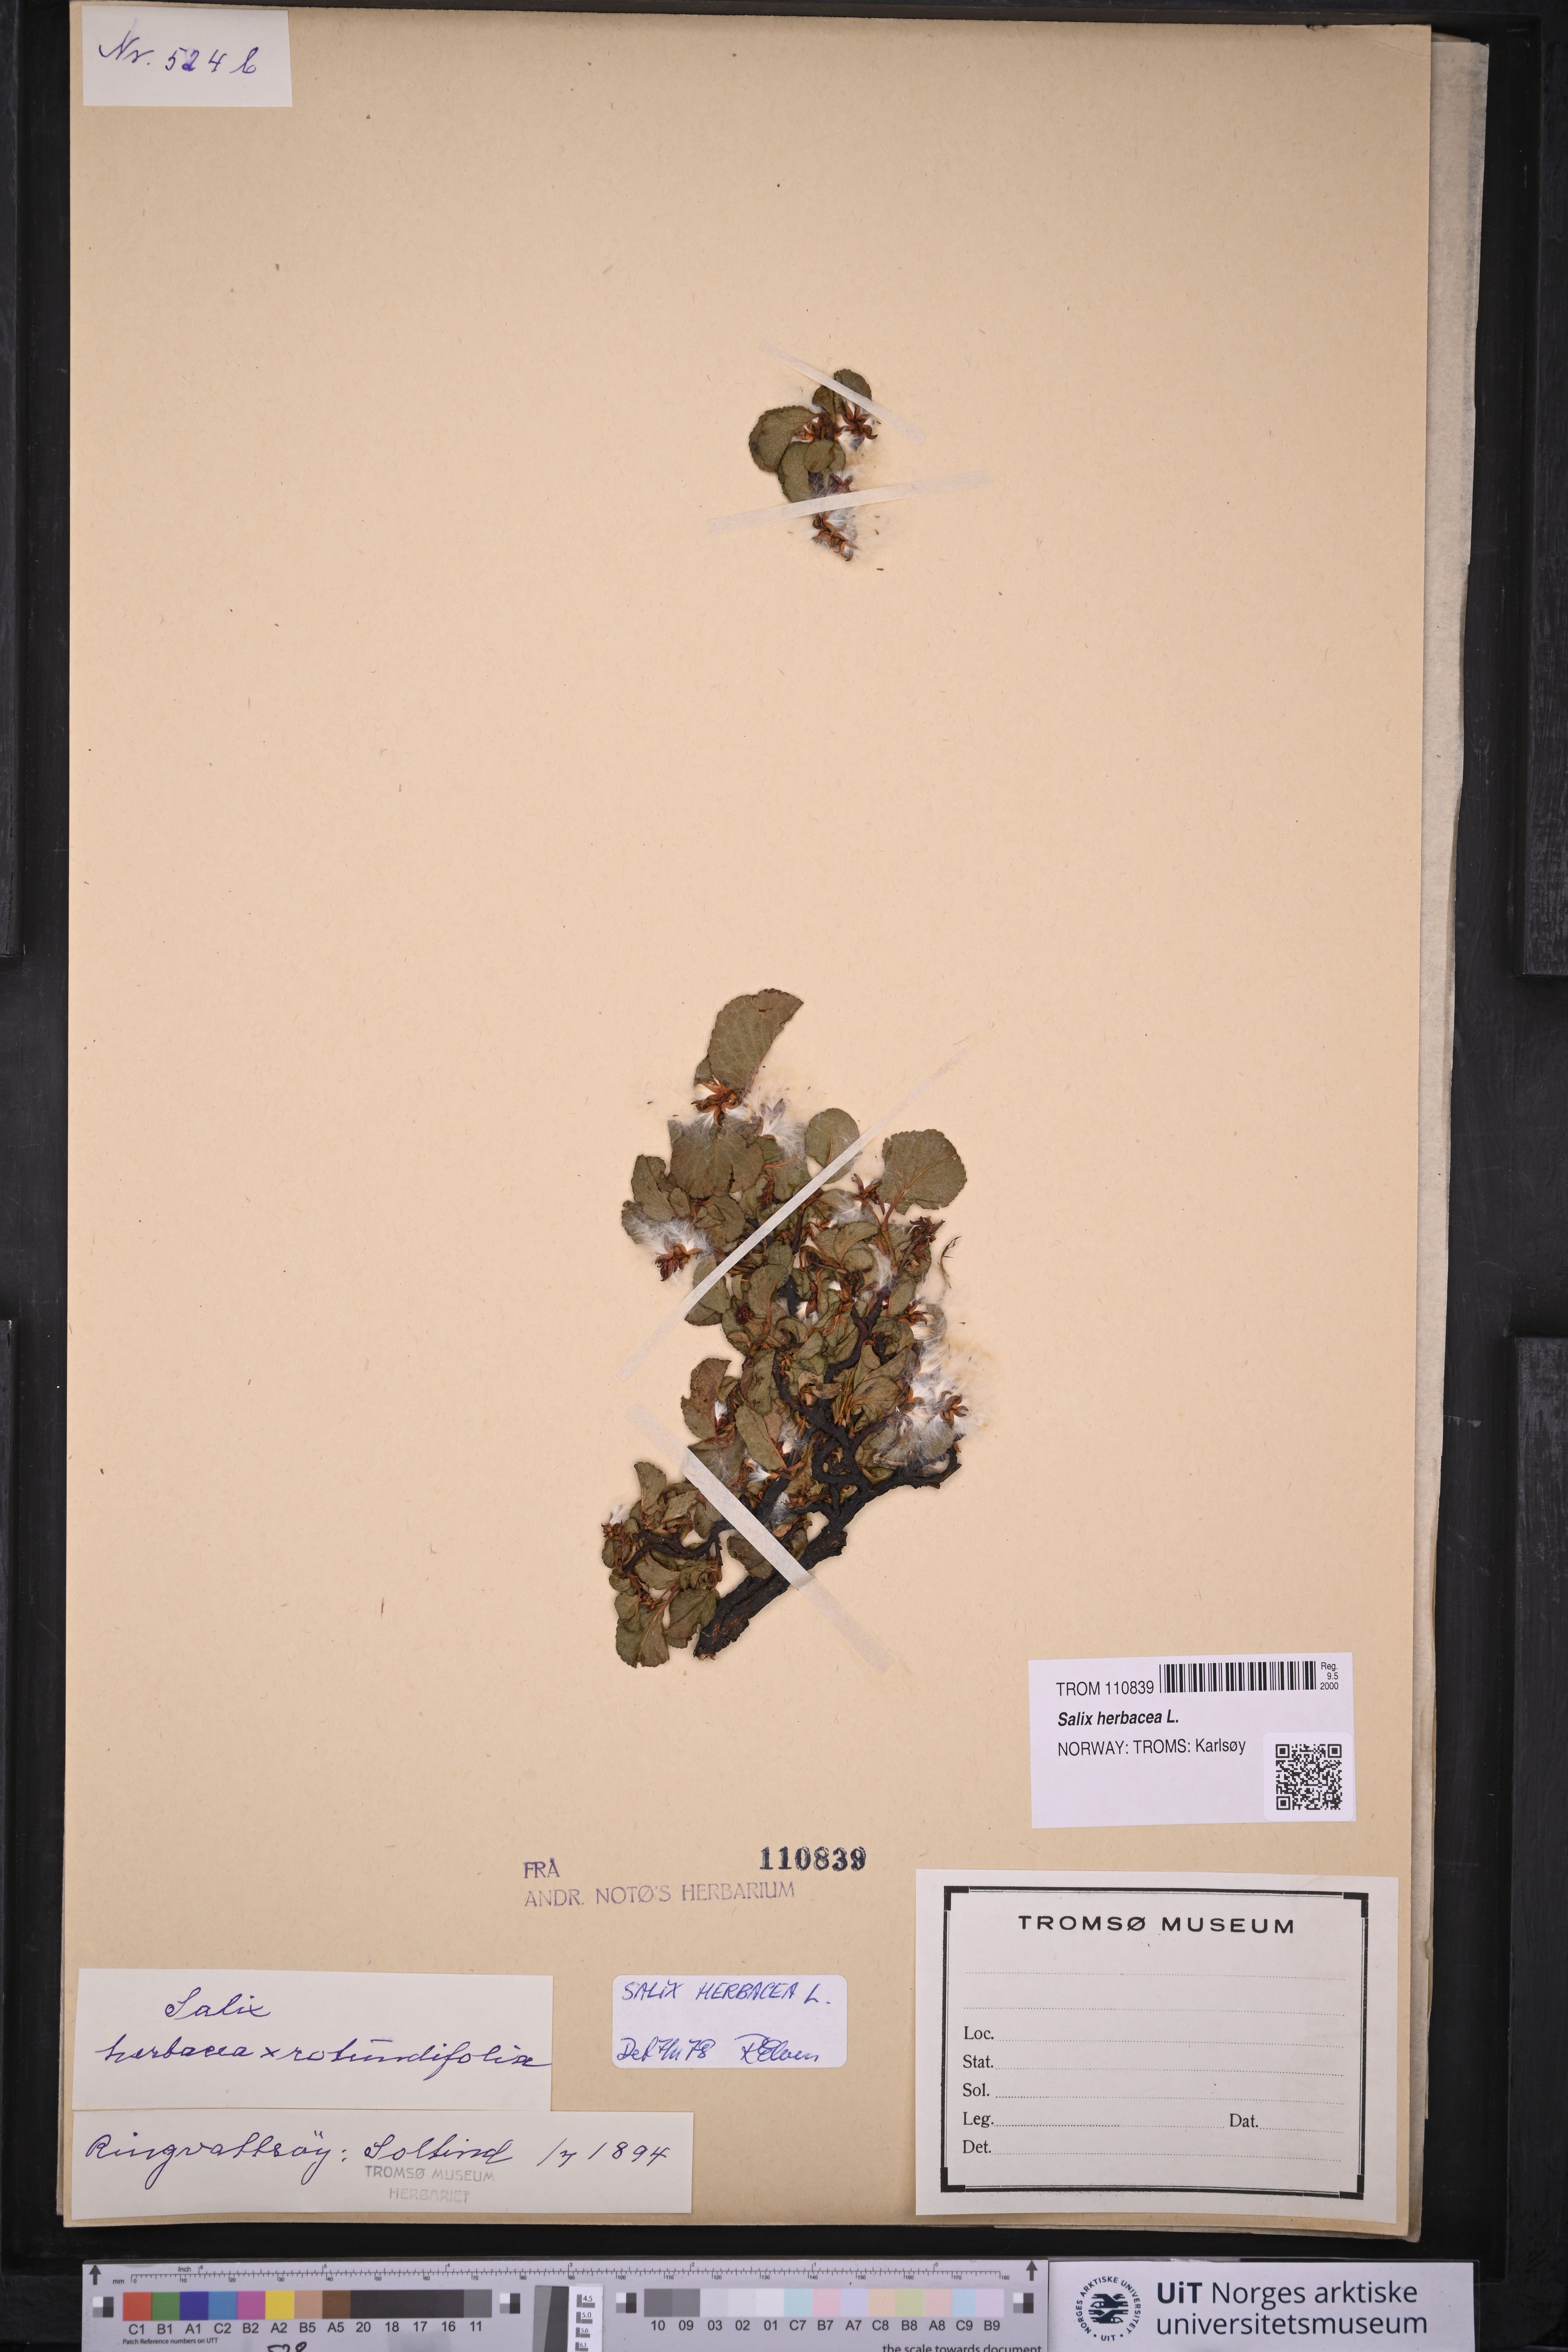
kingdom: Plantae
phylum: Tracheophyta
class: Magnoliopsida
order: Malpighiales
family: Salicaceae
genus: Salix
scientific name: Salix herbacea
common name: Dwarf willow
